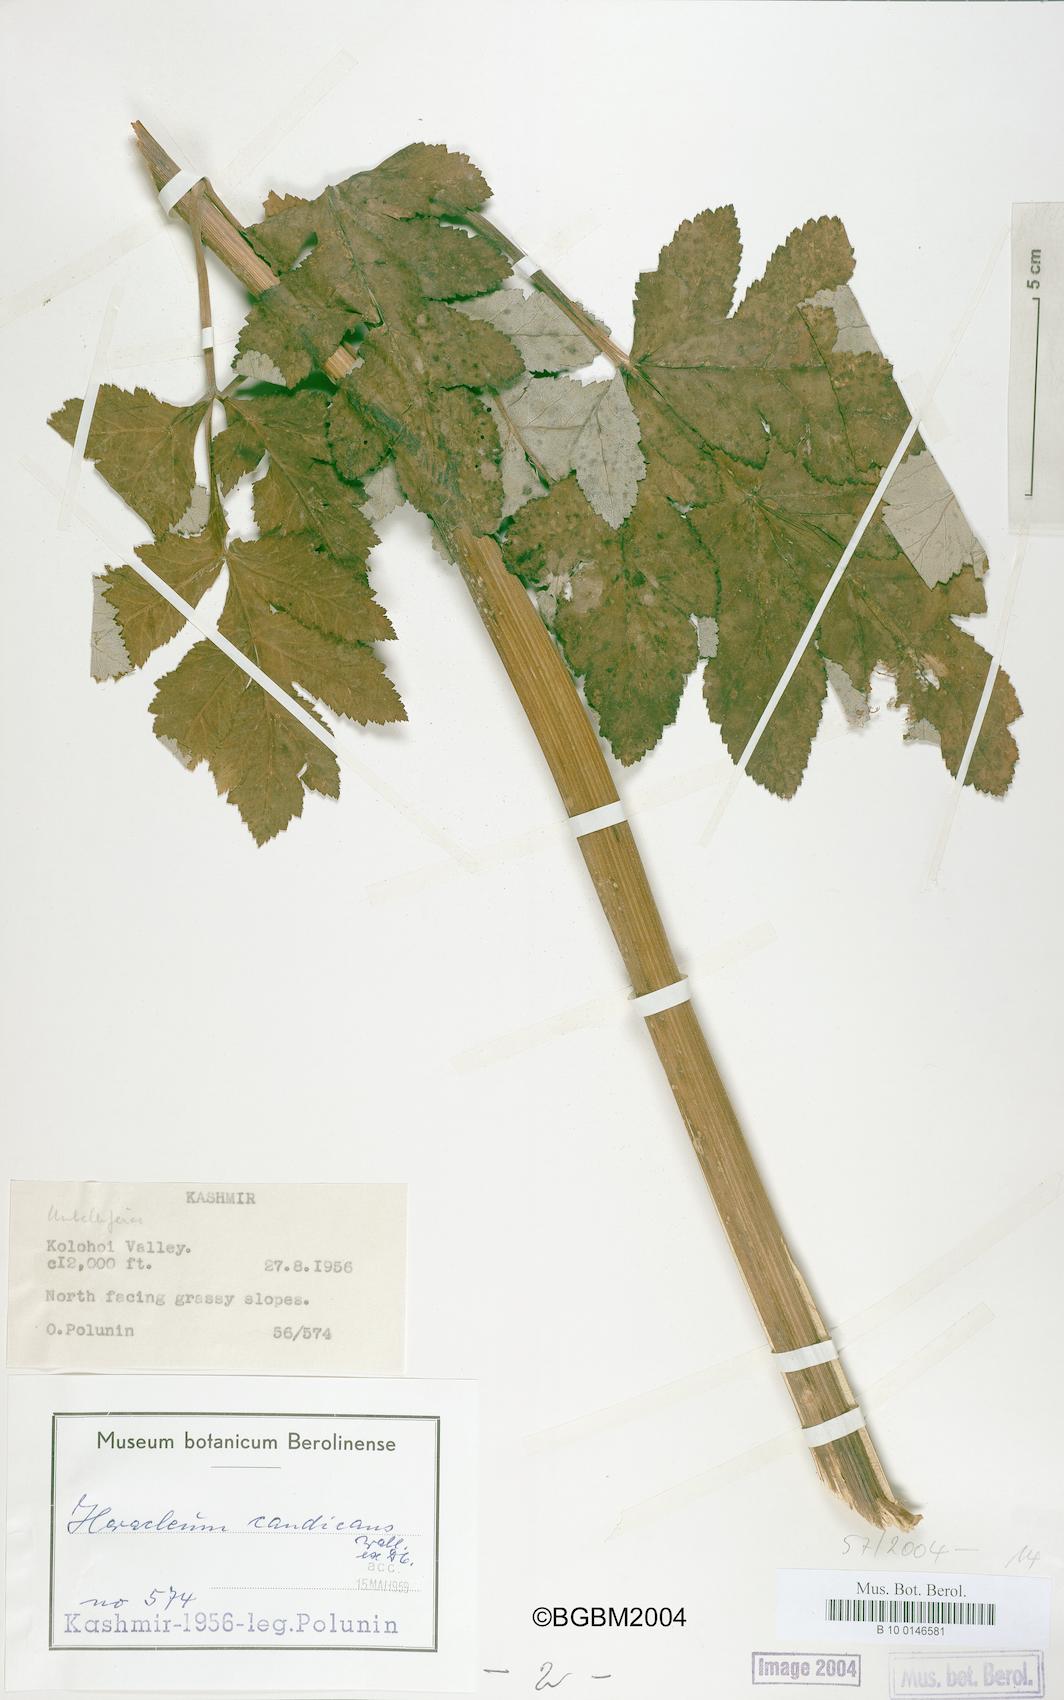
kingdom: Plantae
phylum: Tracheophyta
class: Magnoliopsida
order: Apiales
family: Apiaceae
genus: Tetrataenium
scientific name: Tetrataenium candicans
